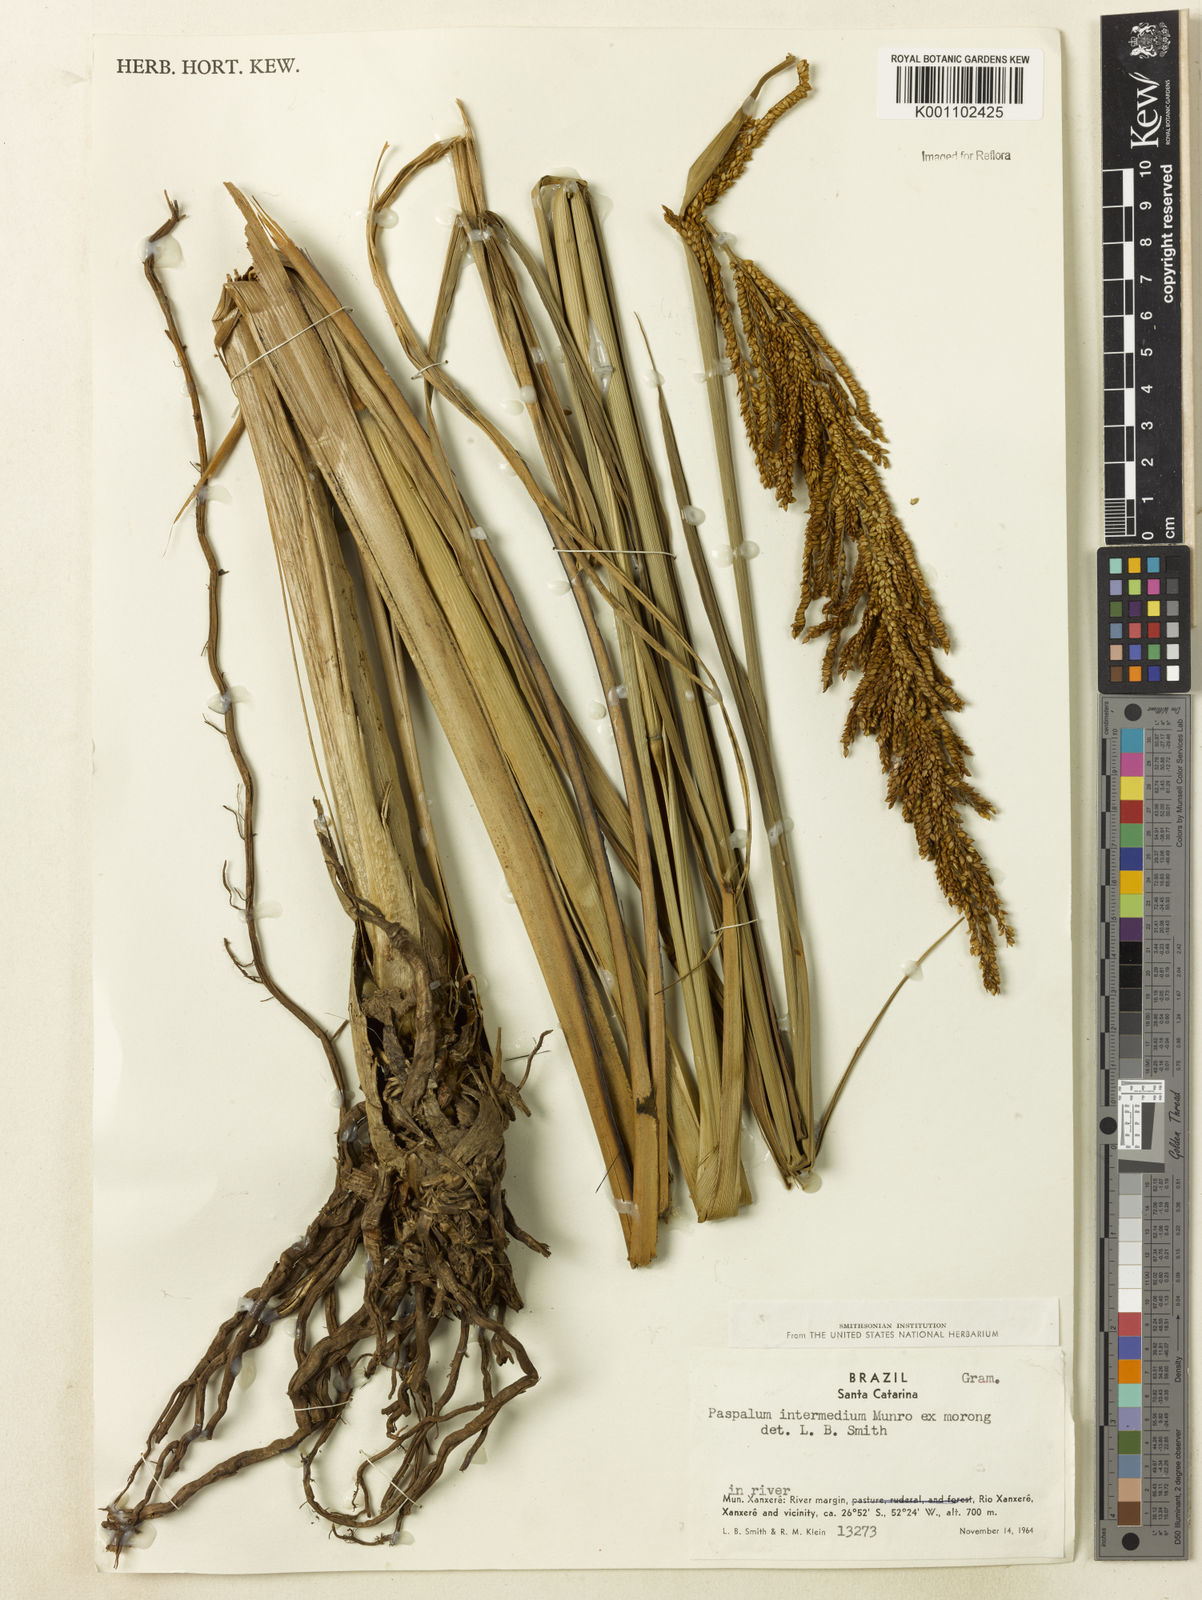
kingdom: Plantae
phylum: Tracheophyta
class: Liliopsida
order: Poales
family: Poaceae
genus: Paspalum
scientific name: Paspalum exaltatum
